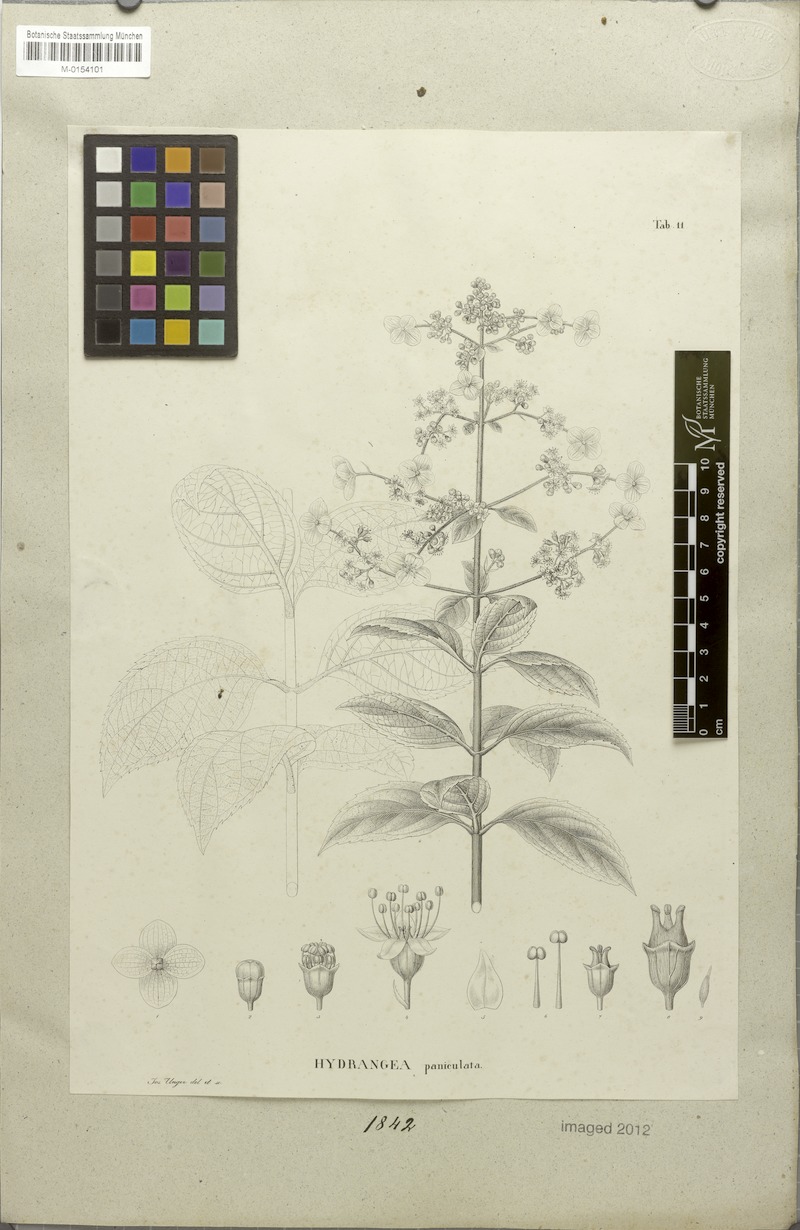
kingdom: Plantae
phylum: Tracheophyta
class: Magnoliopsida
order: Cornales
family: Hydrangeaceae
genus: Hydrangea
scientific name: Hydrangea paniculata
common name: Panicled hydrangea
